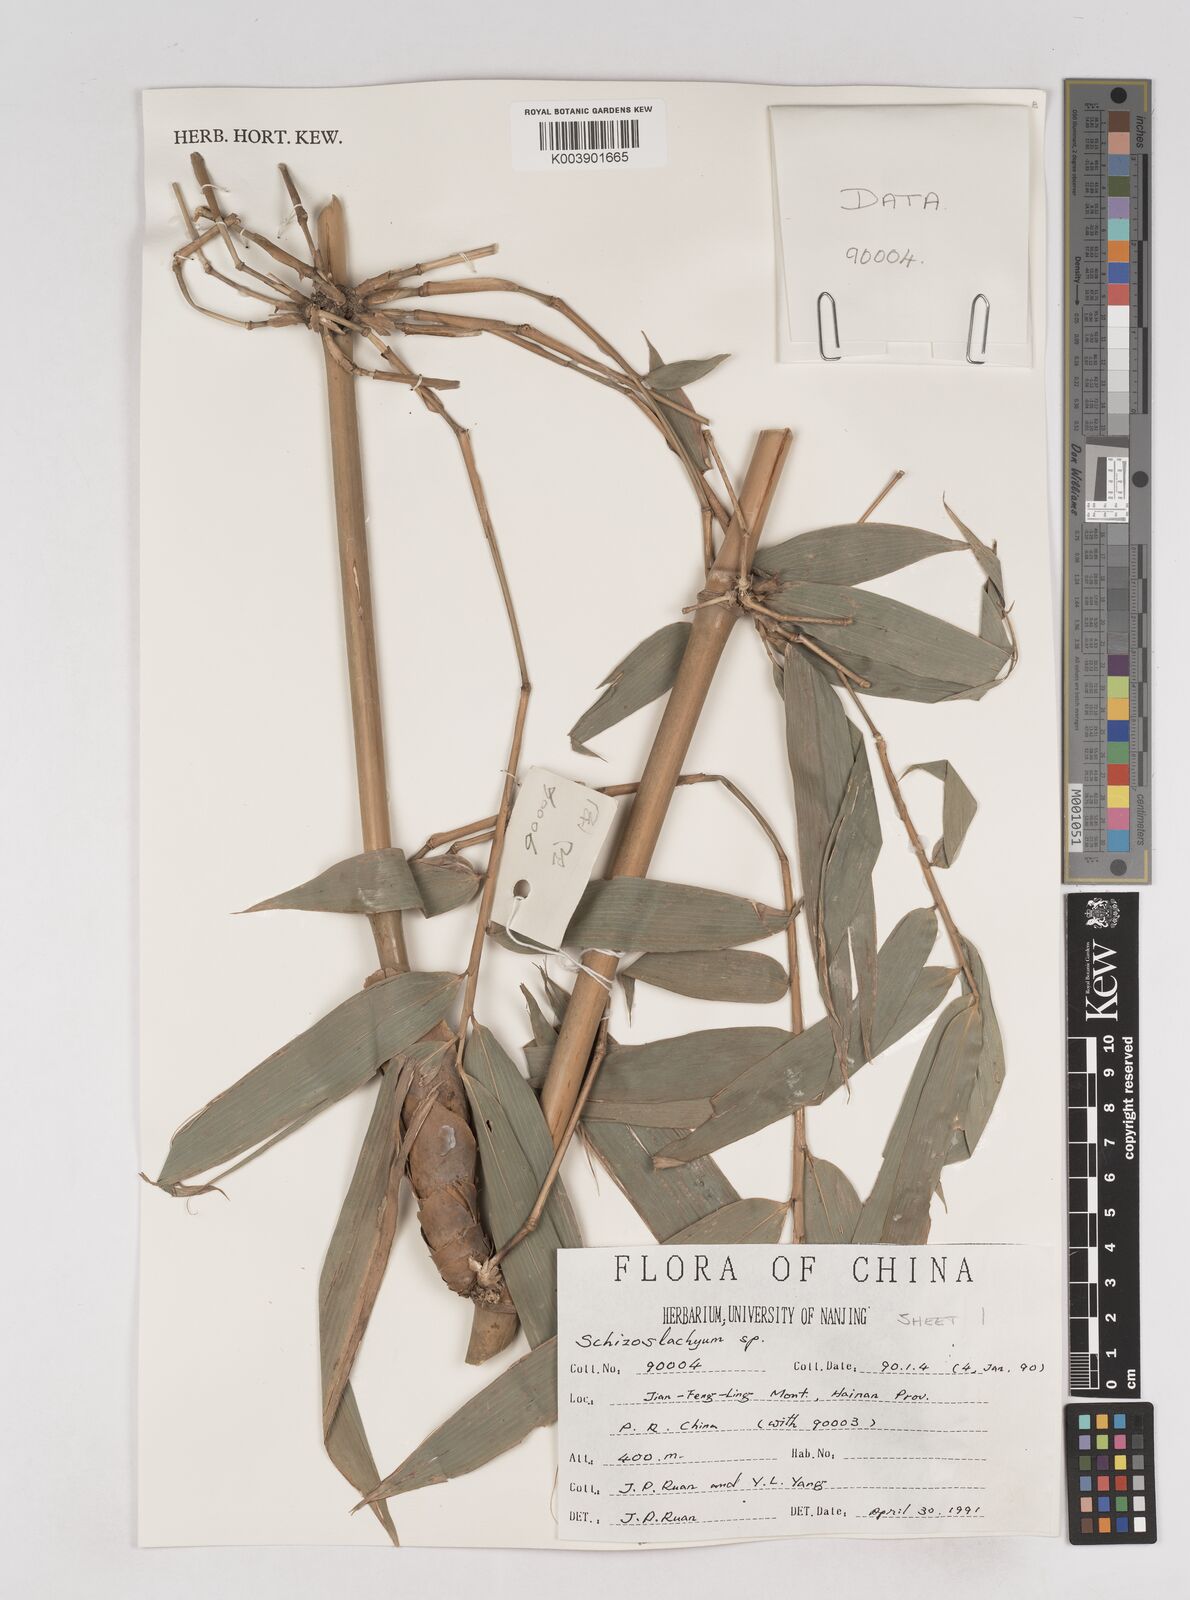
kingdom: Plantae
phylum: Tracheophyta
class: Liliopsida
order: Poales
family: Poaceae
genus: Schizostachyum
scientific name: Schizostachyum
